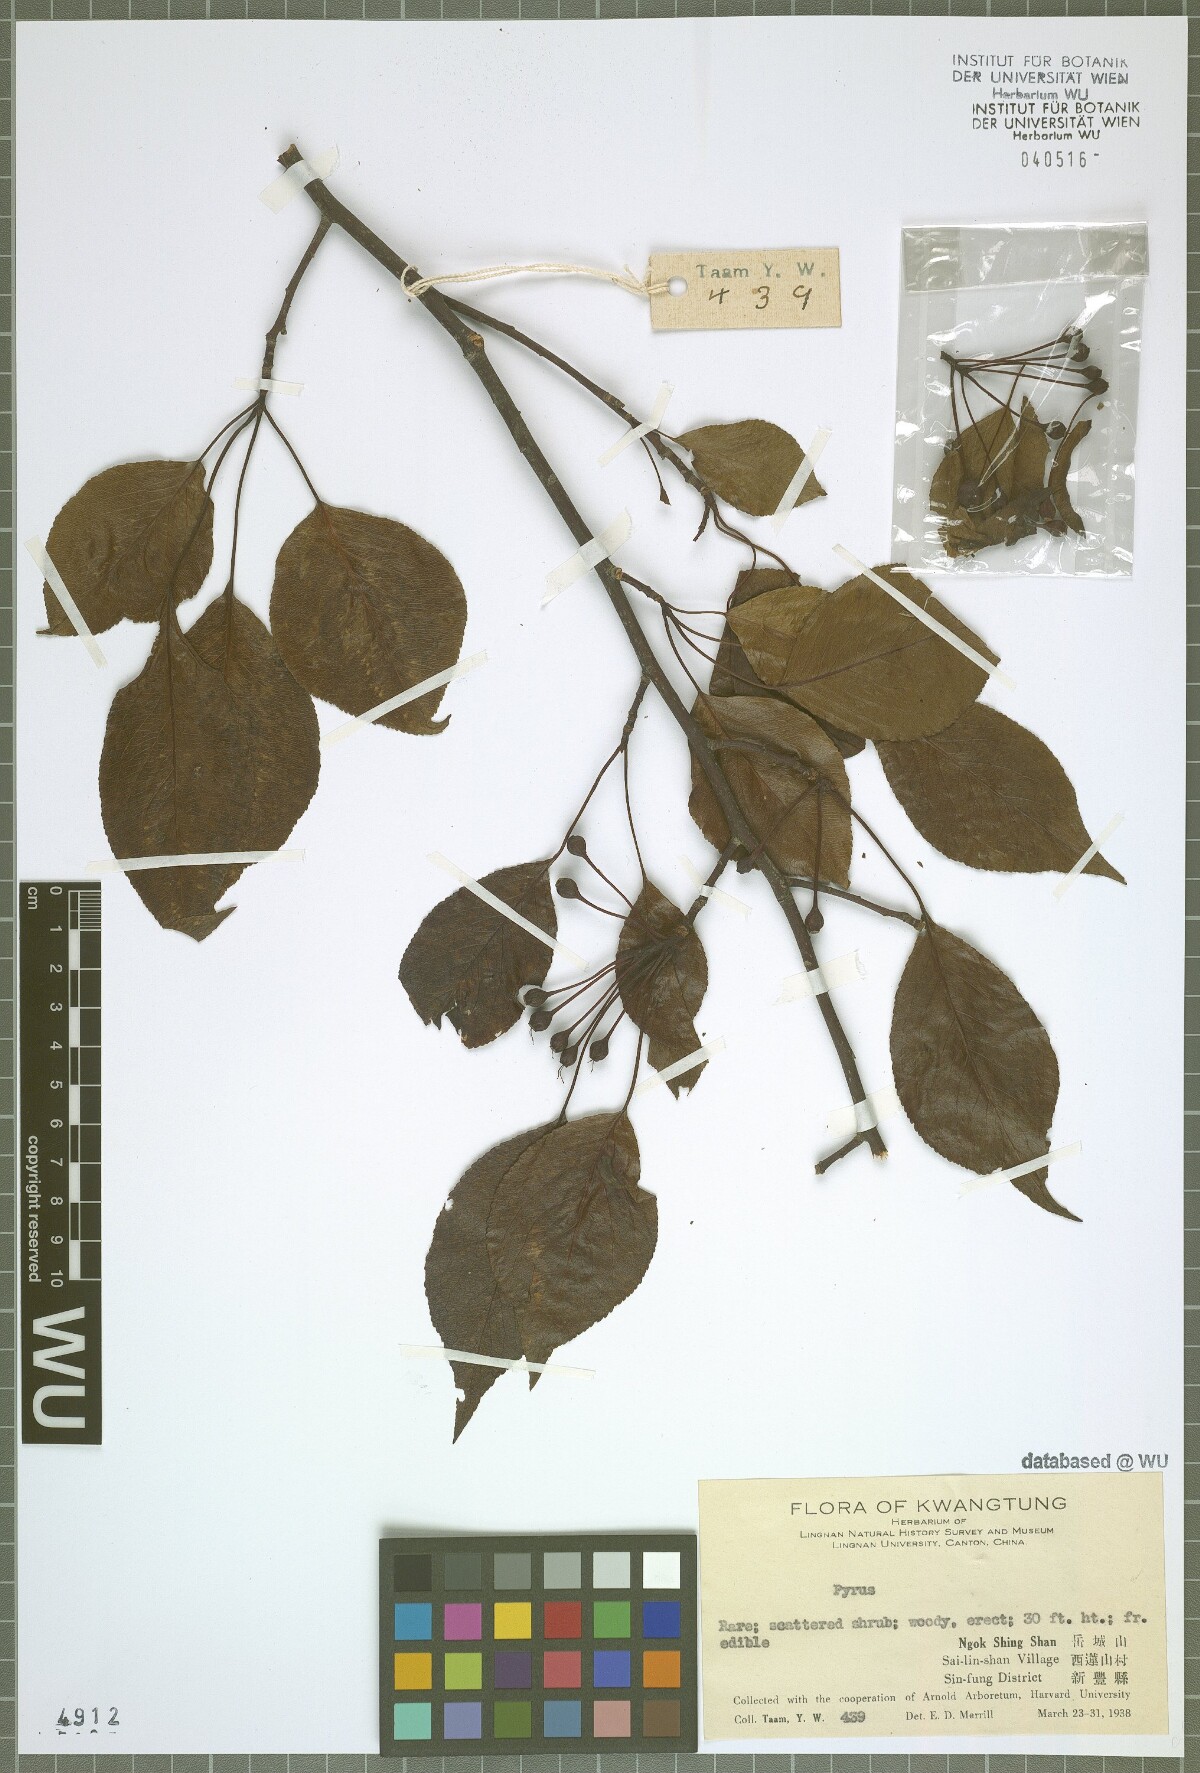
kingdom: Plantae
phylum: Tracheophyta
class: Magnoliopsida
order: Rosales
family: Rosaceae
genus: Pyrus
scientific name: Pyrus
